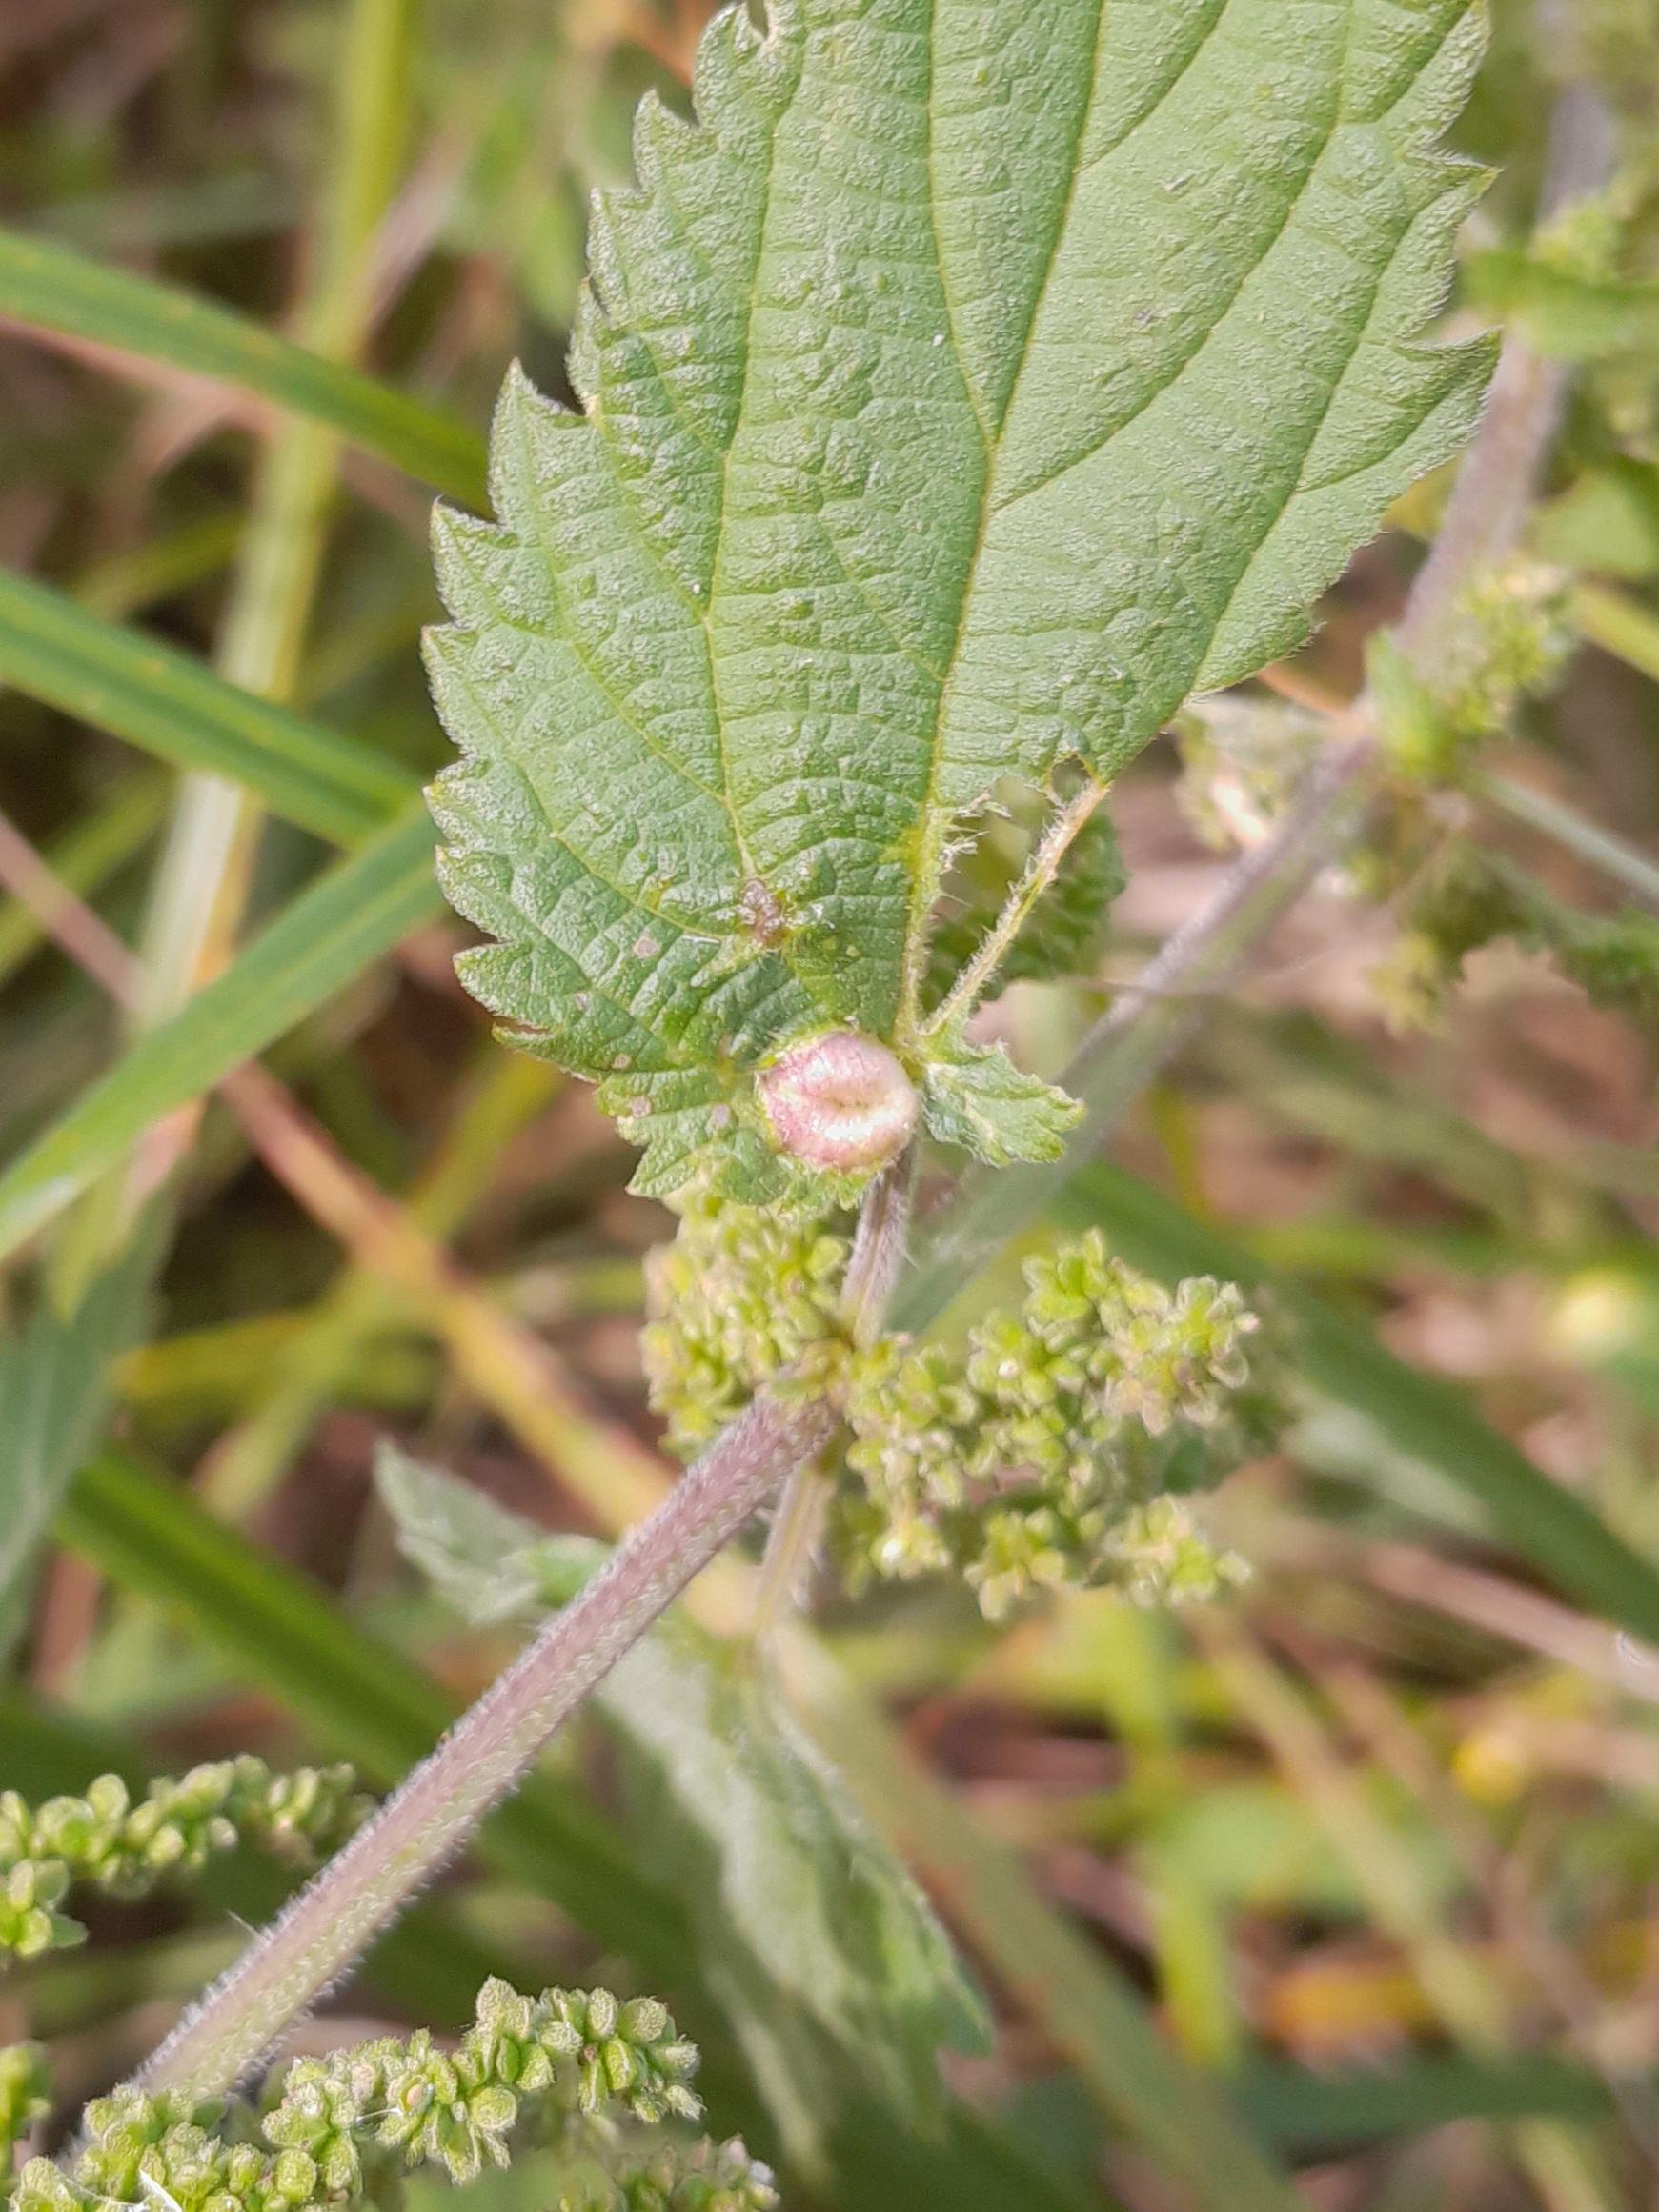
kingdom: Animalia
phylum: Arthropoda
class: Insecta
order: Diptera
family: Cecidomyiidae
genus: Dasineura
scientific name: Dasineura urticae
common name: Nældepunggalmyg
